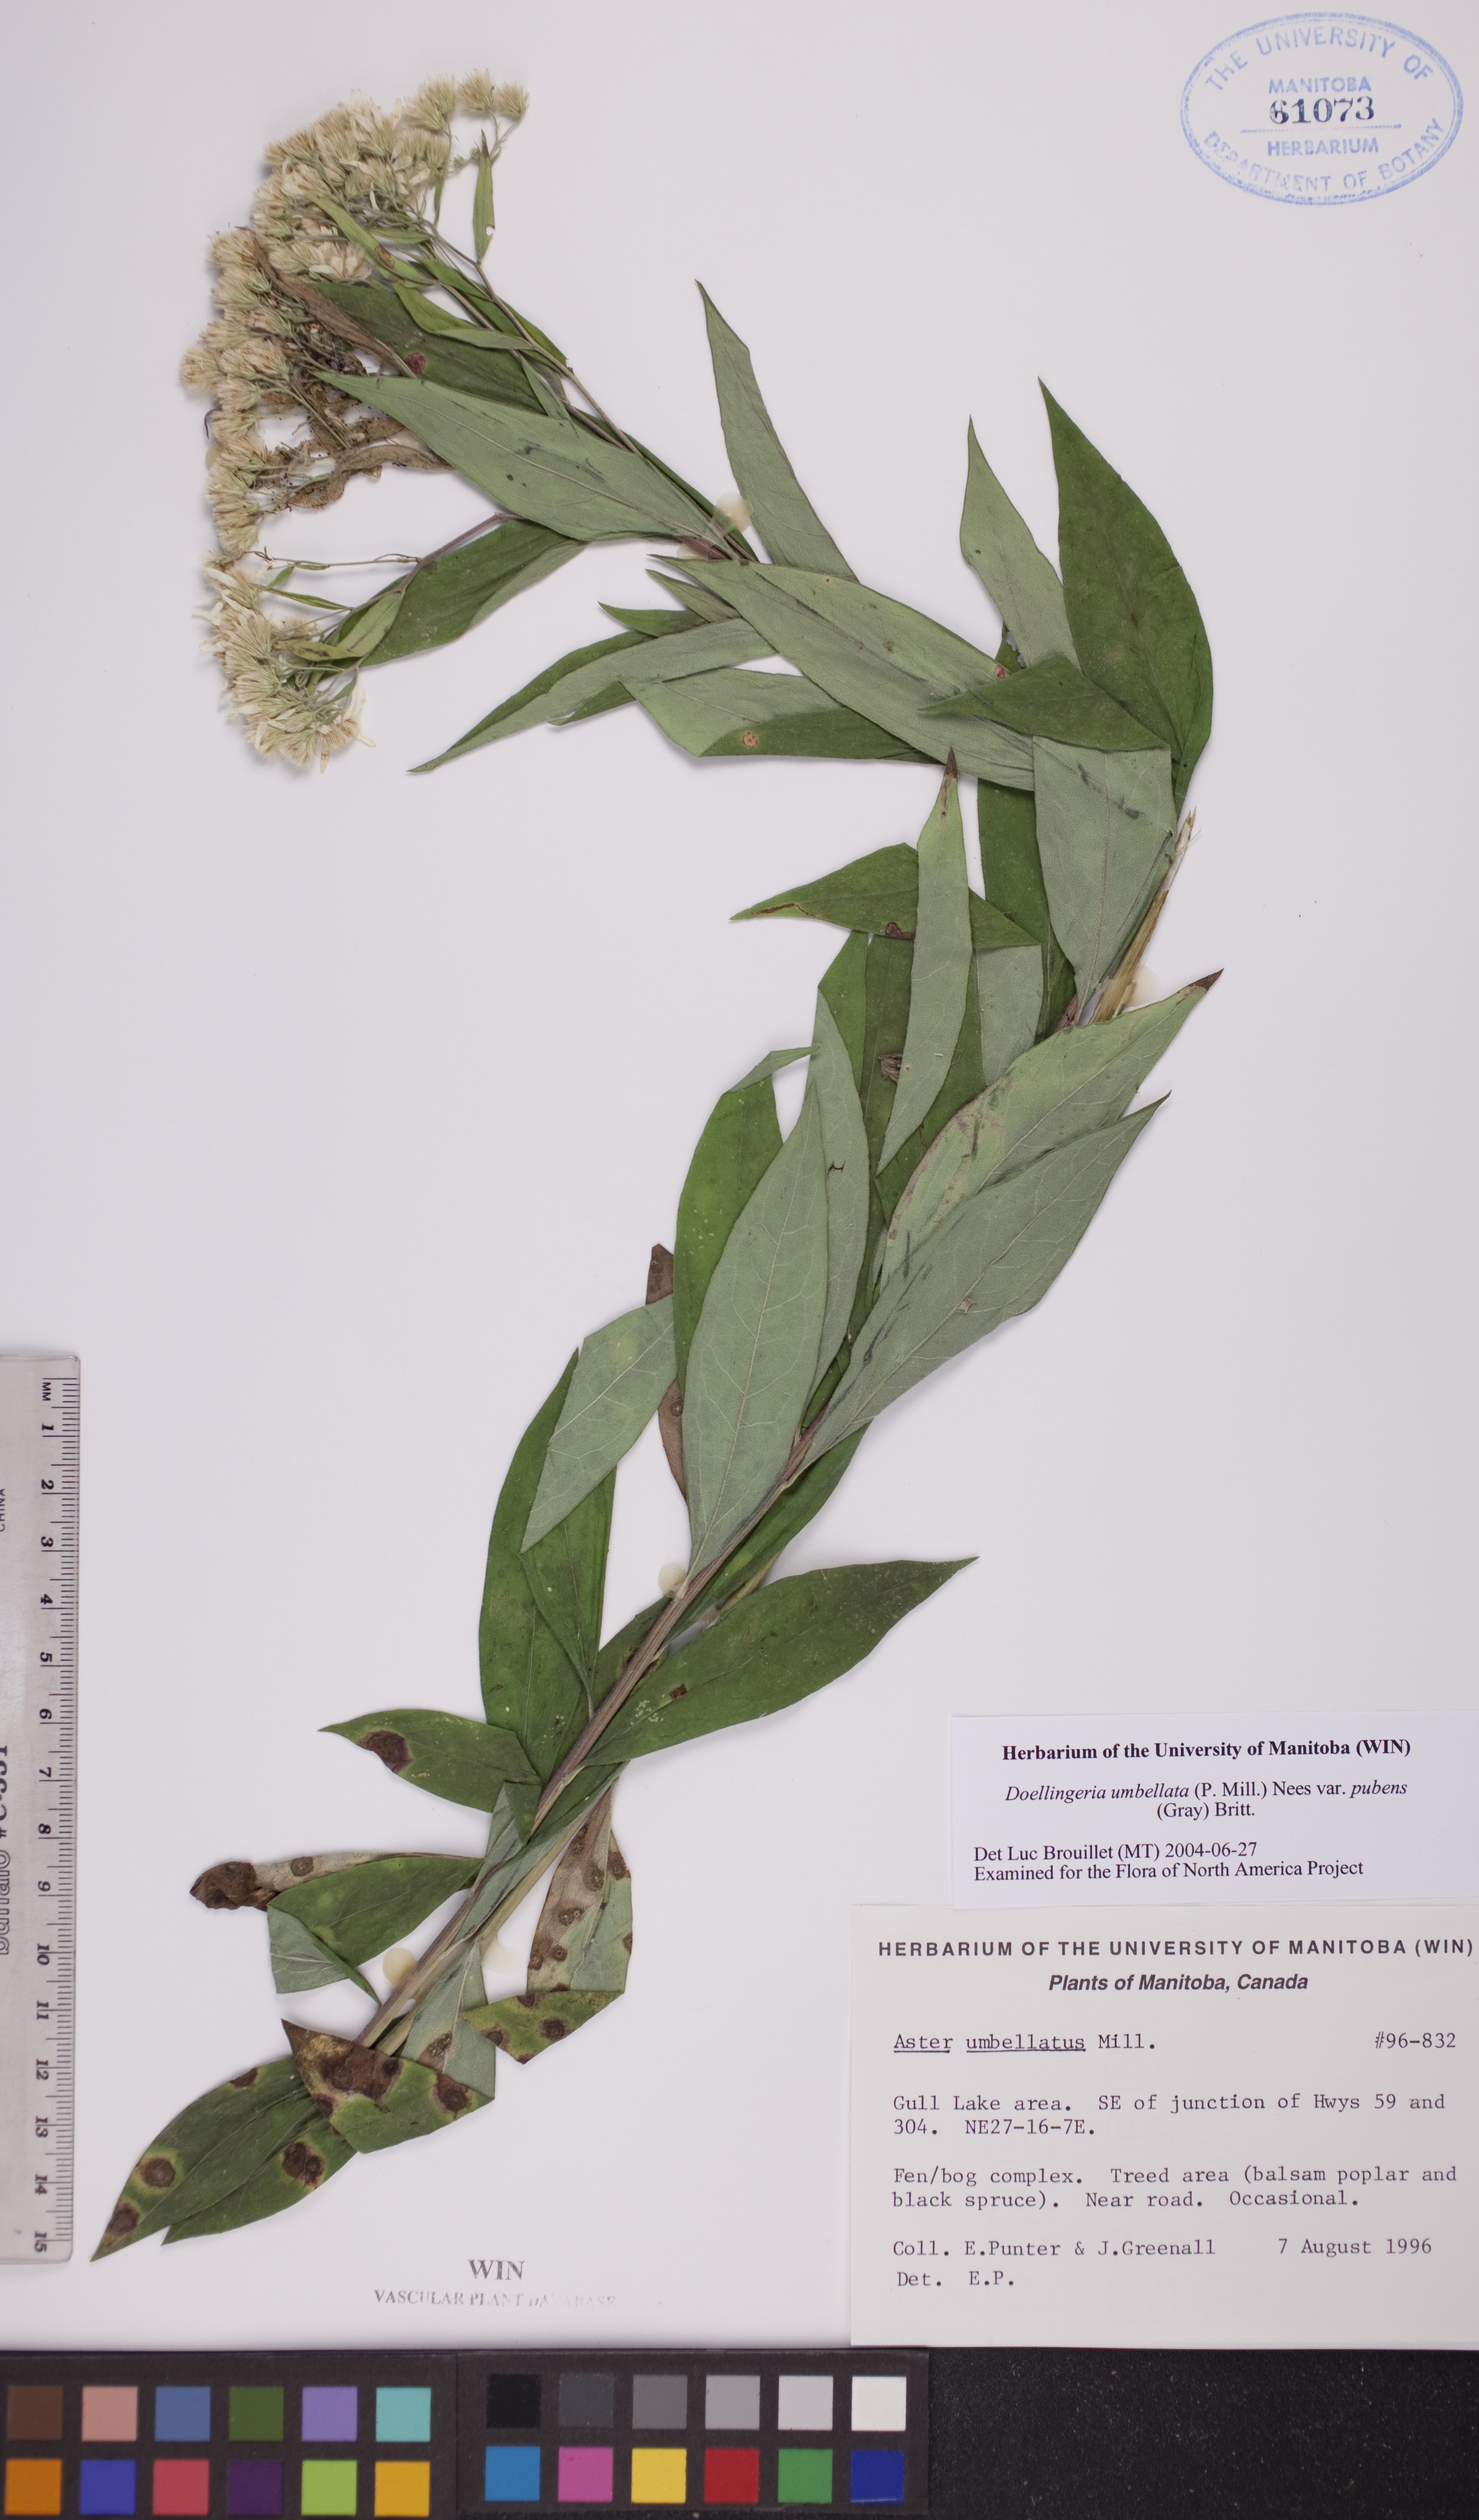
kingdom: Plantae
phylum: Tracheophyta
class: Magnoliopsida
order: Asterales
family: Asteraceae
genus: Doellingeria
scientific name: Doellingeria umbellata
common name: Flat-top white aster
